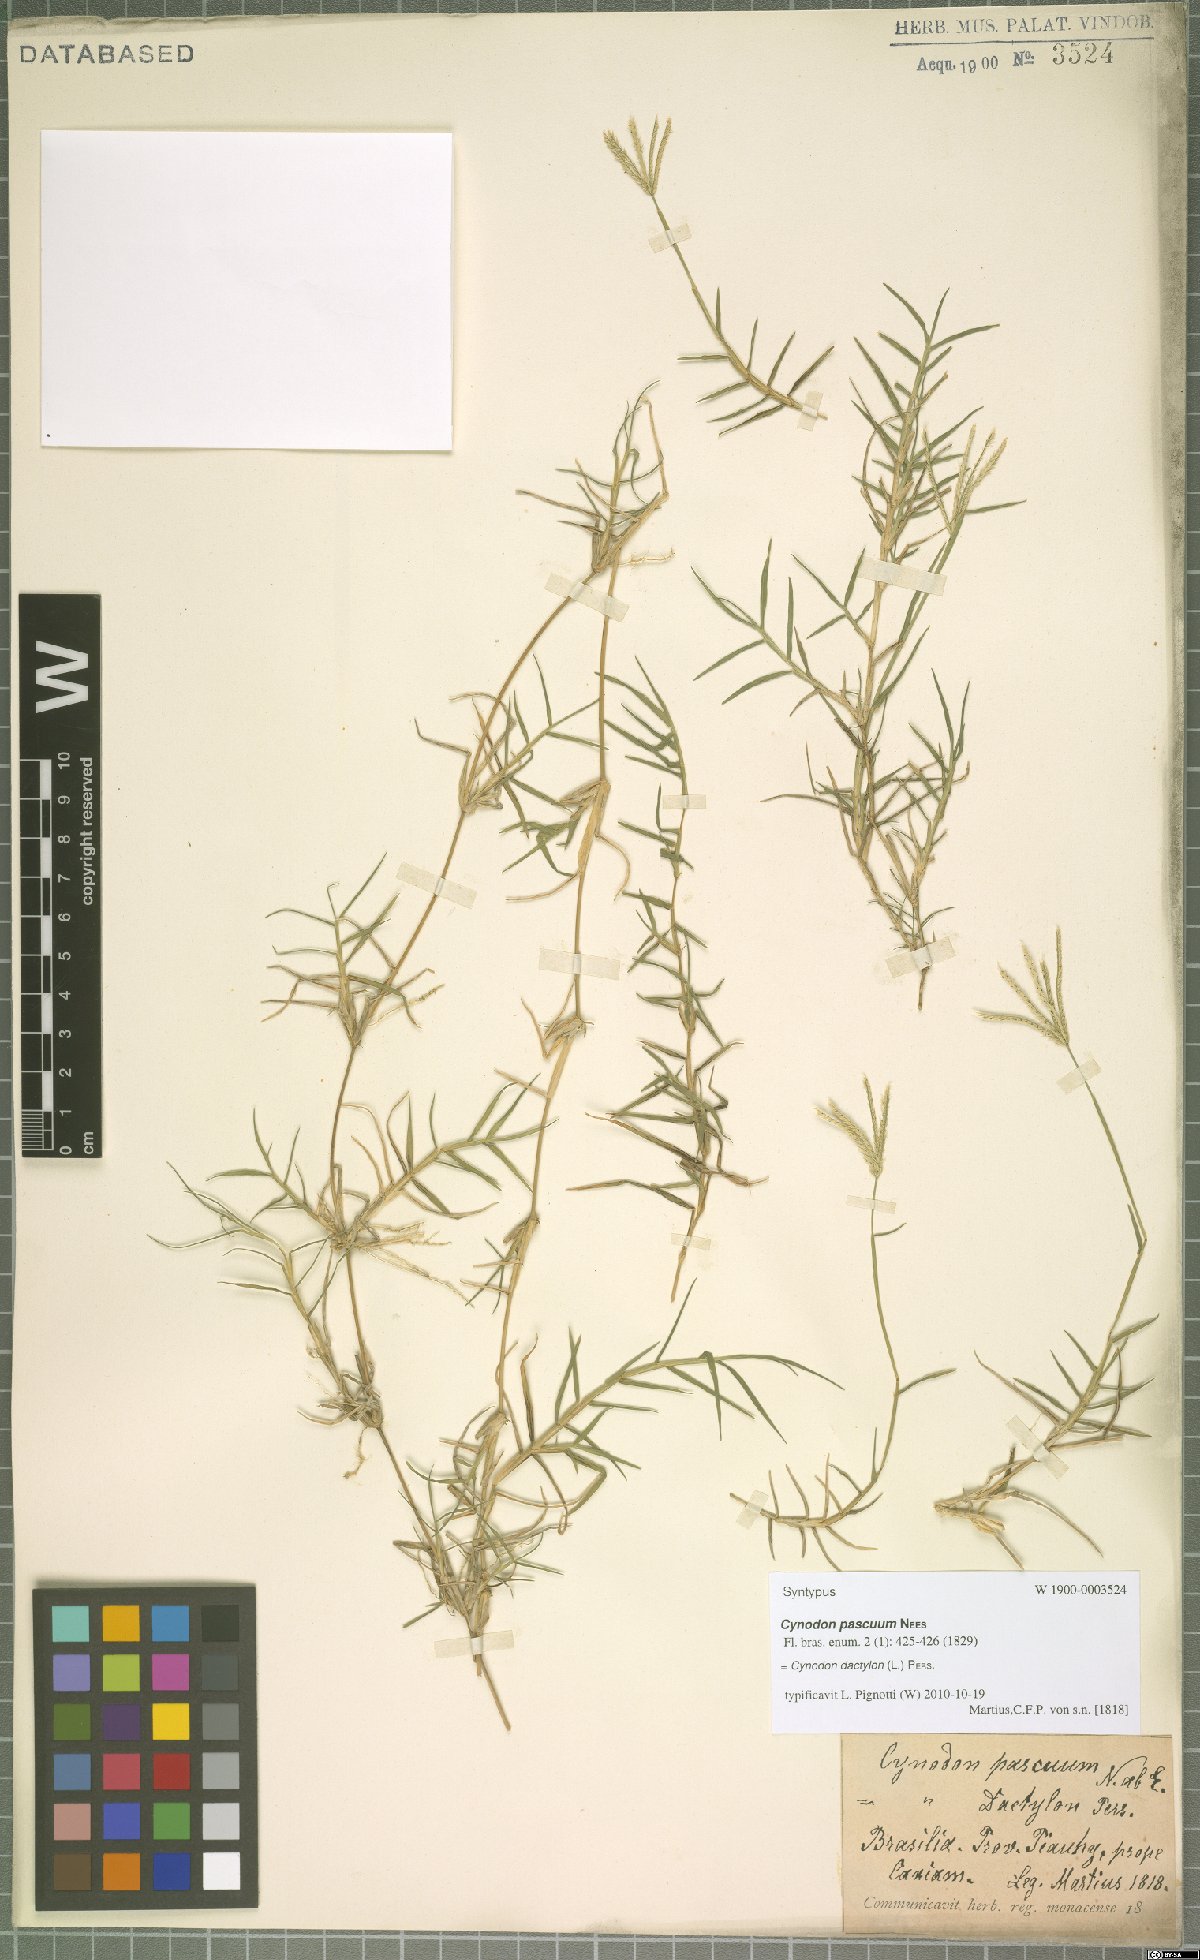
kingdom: Plantae
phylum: Tracheophyta
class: Liliopsida
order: Poales
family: Poaceae
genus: Cynodon
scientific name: Cynodon dactylon
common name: Bermuda grass
